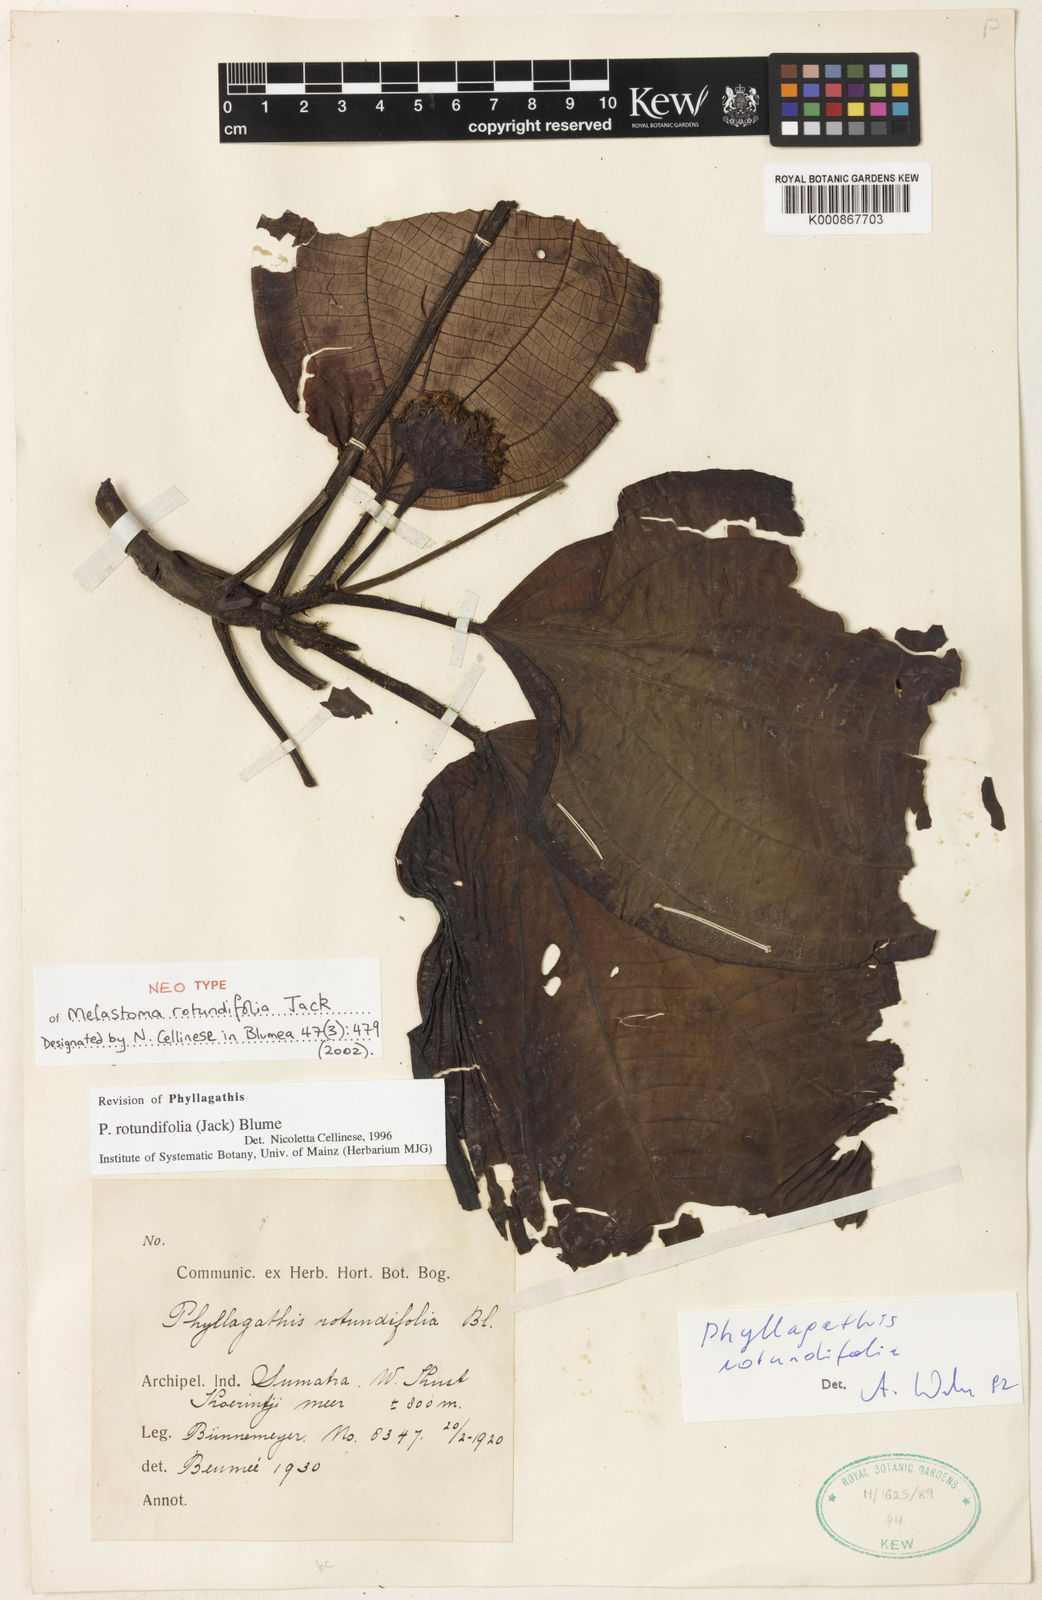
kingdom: Plantae
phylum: Tracheophyta
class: Magnoliopsida
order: Myrtales
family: Melastomataceae
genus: Phyllagathis
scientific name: Phyllagathis rotundifolia
